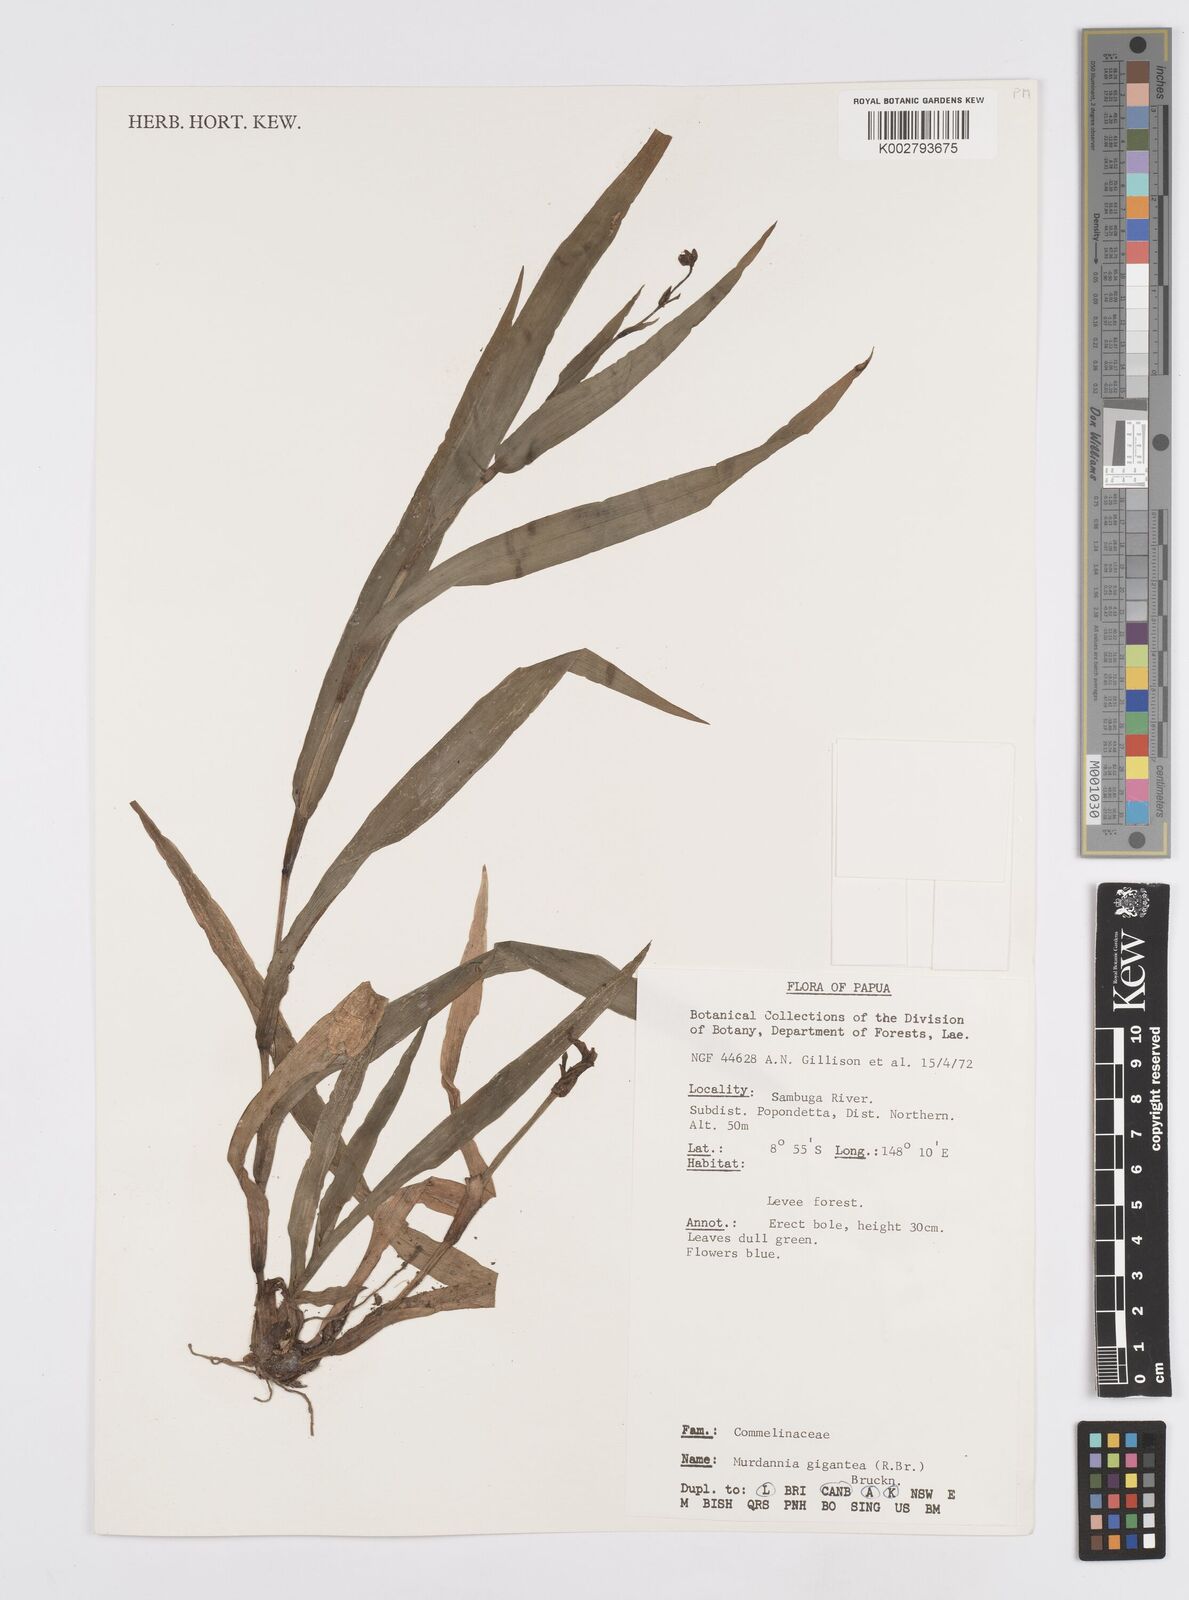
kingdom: Plantae
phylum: Tracheophyta
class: Liliopsida
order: Commelinales
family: Commelinaceae
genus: Murdannia
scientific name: Murdannia gigantea
